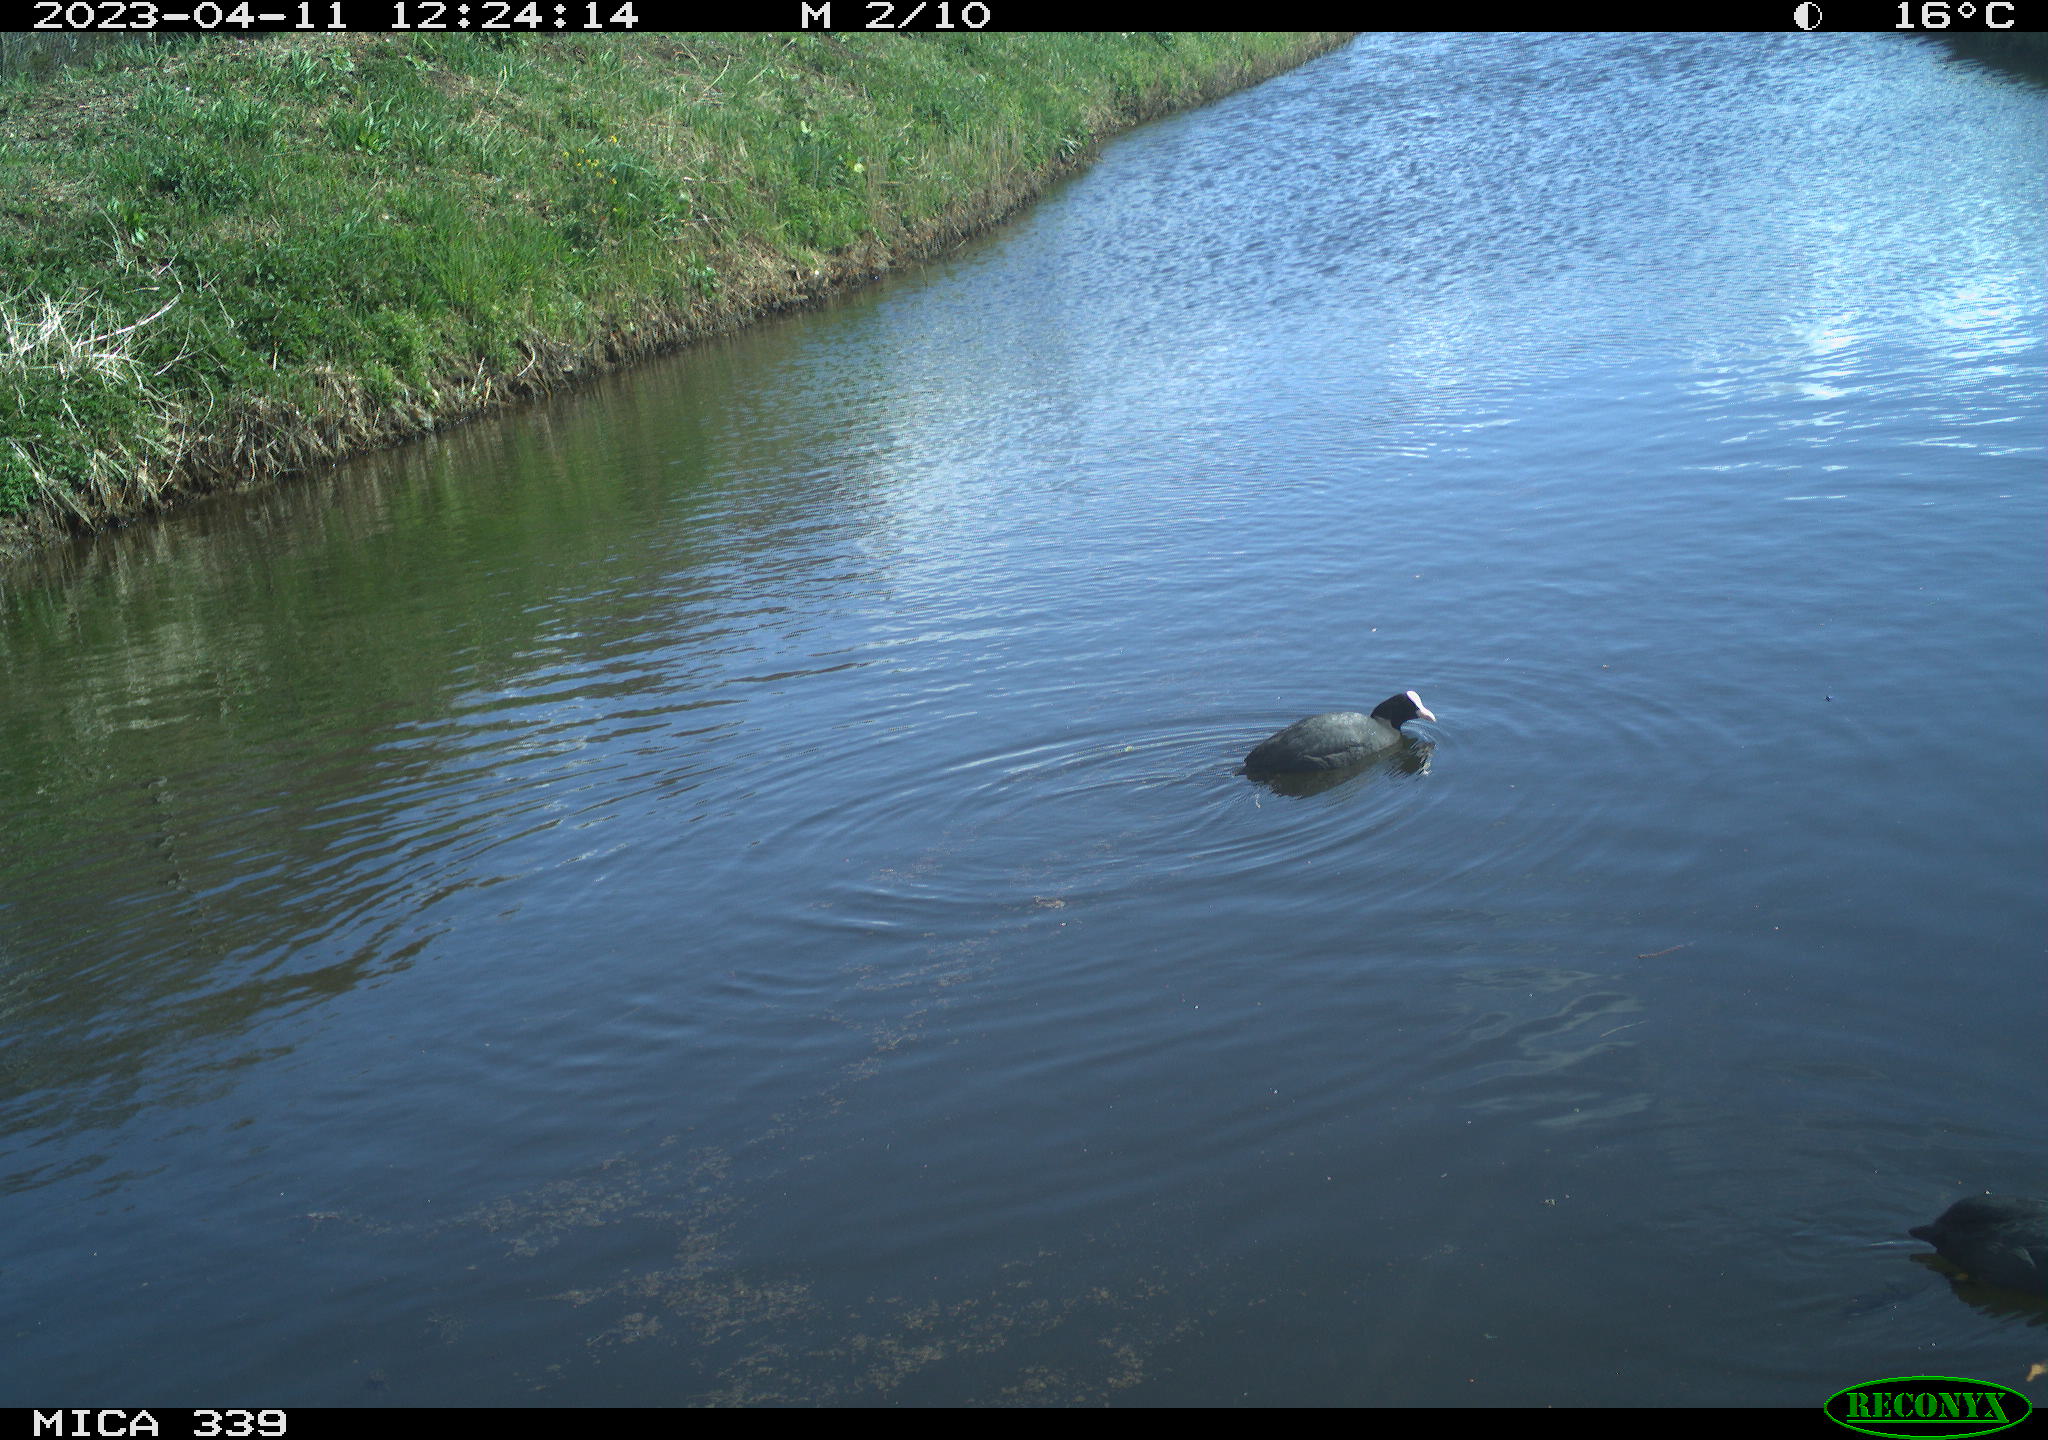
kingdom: Animalia
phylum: Chordata
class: Aves
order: Gruiformes
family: Rallidae
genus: Fulica
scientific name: Fulica atra
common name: Eurasian coot
